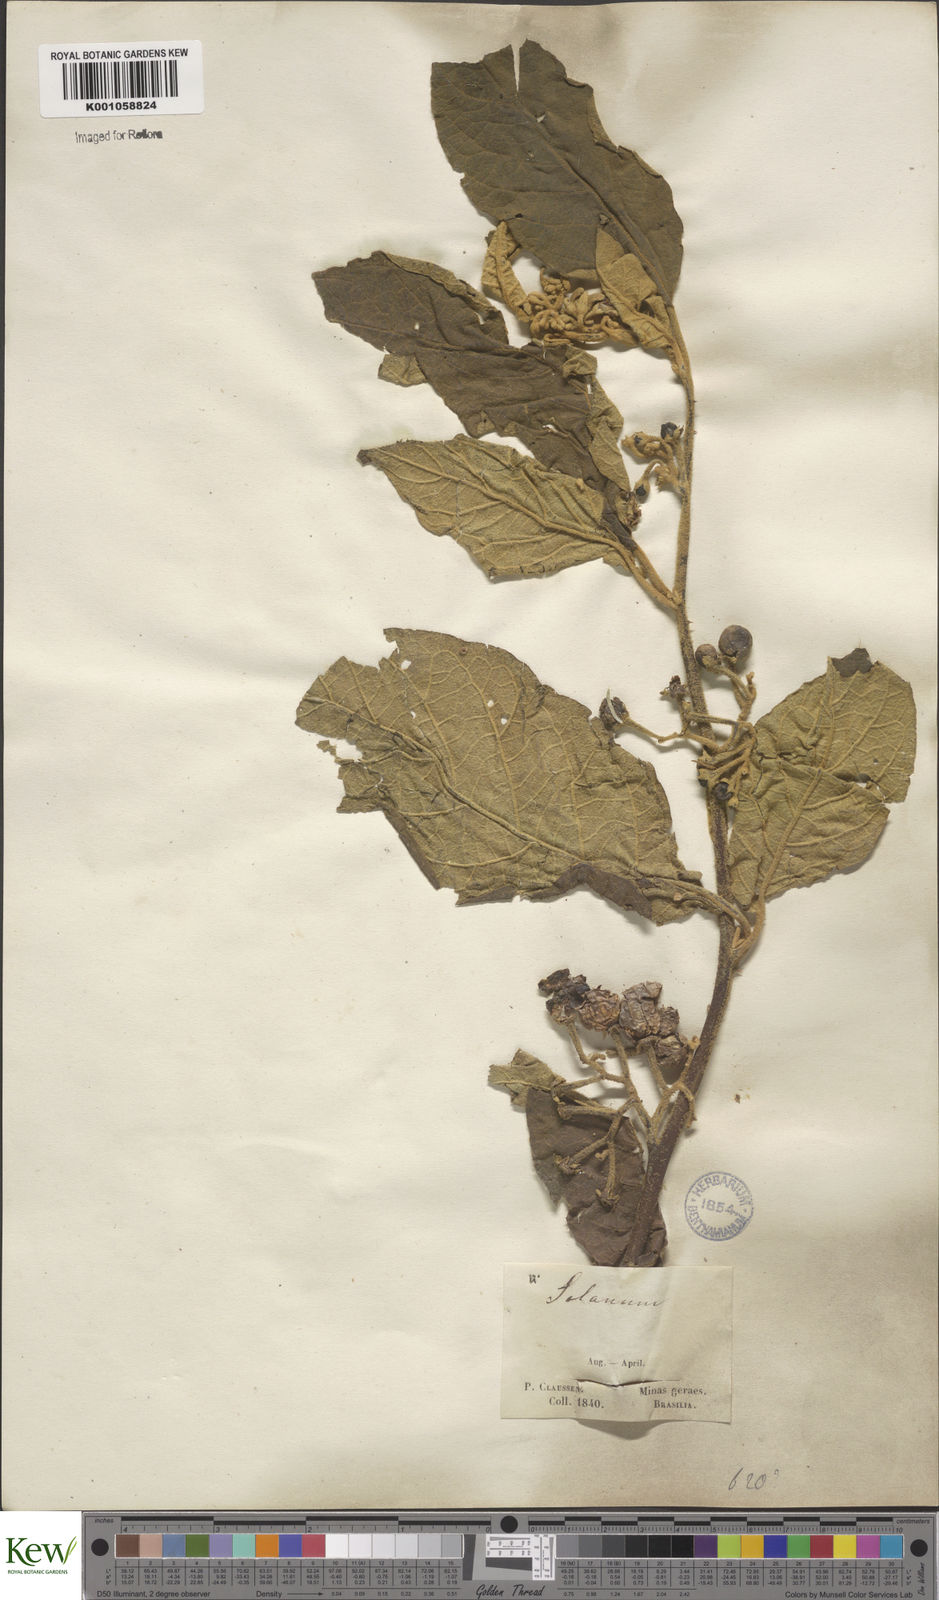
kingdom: Plantae
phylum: Tracheophyta
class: Magnoliopsida
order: Solanales
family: Solanaceae
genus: Solanum
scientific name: Solanum mauritianum
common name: Earleaf nightshade
